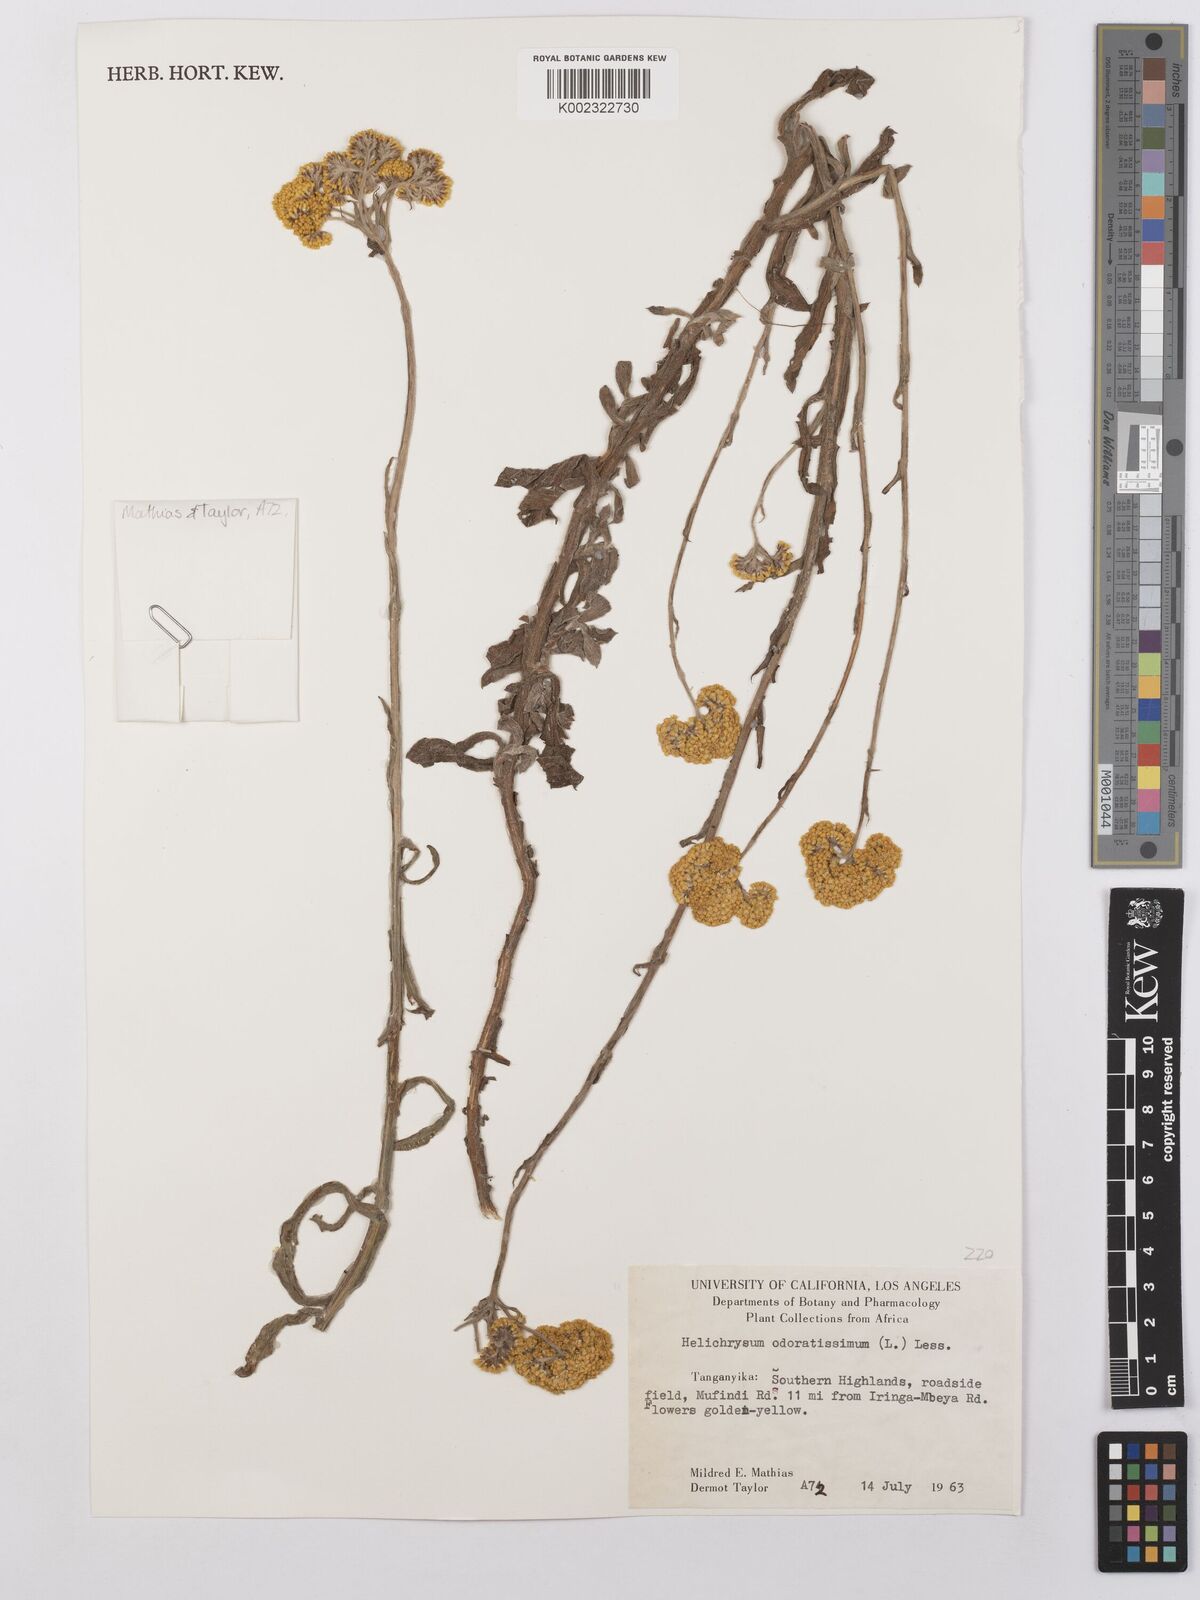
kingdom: Plantae
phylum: Tracheophyta
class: Magnoliopsida
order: Asterales
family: Asteraceae
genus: Helichrysum
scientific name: Helichrysum odoratissimum
